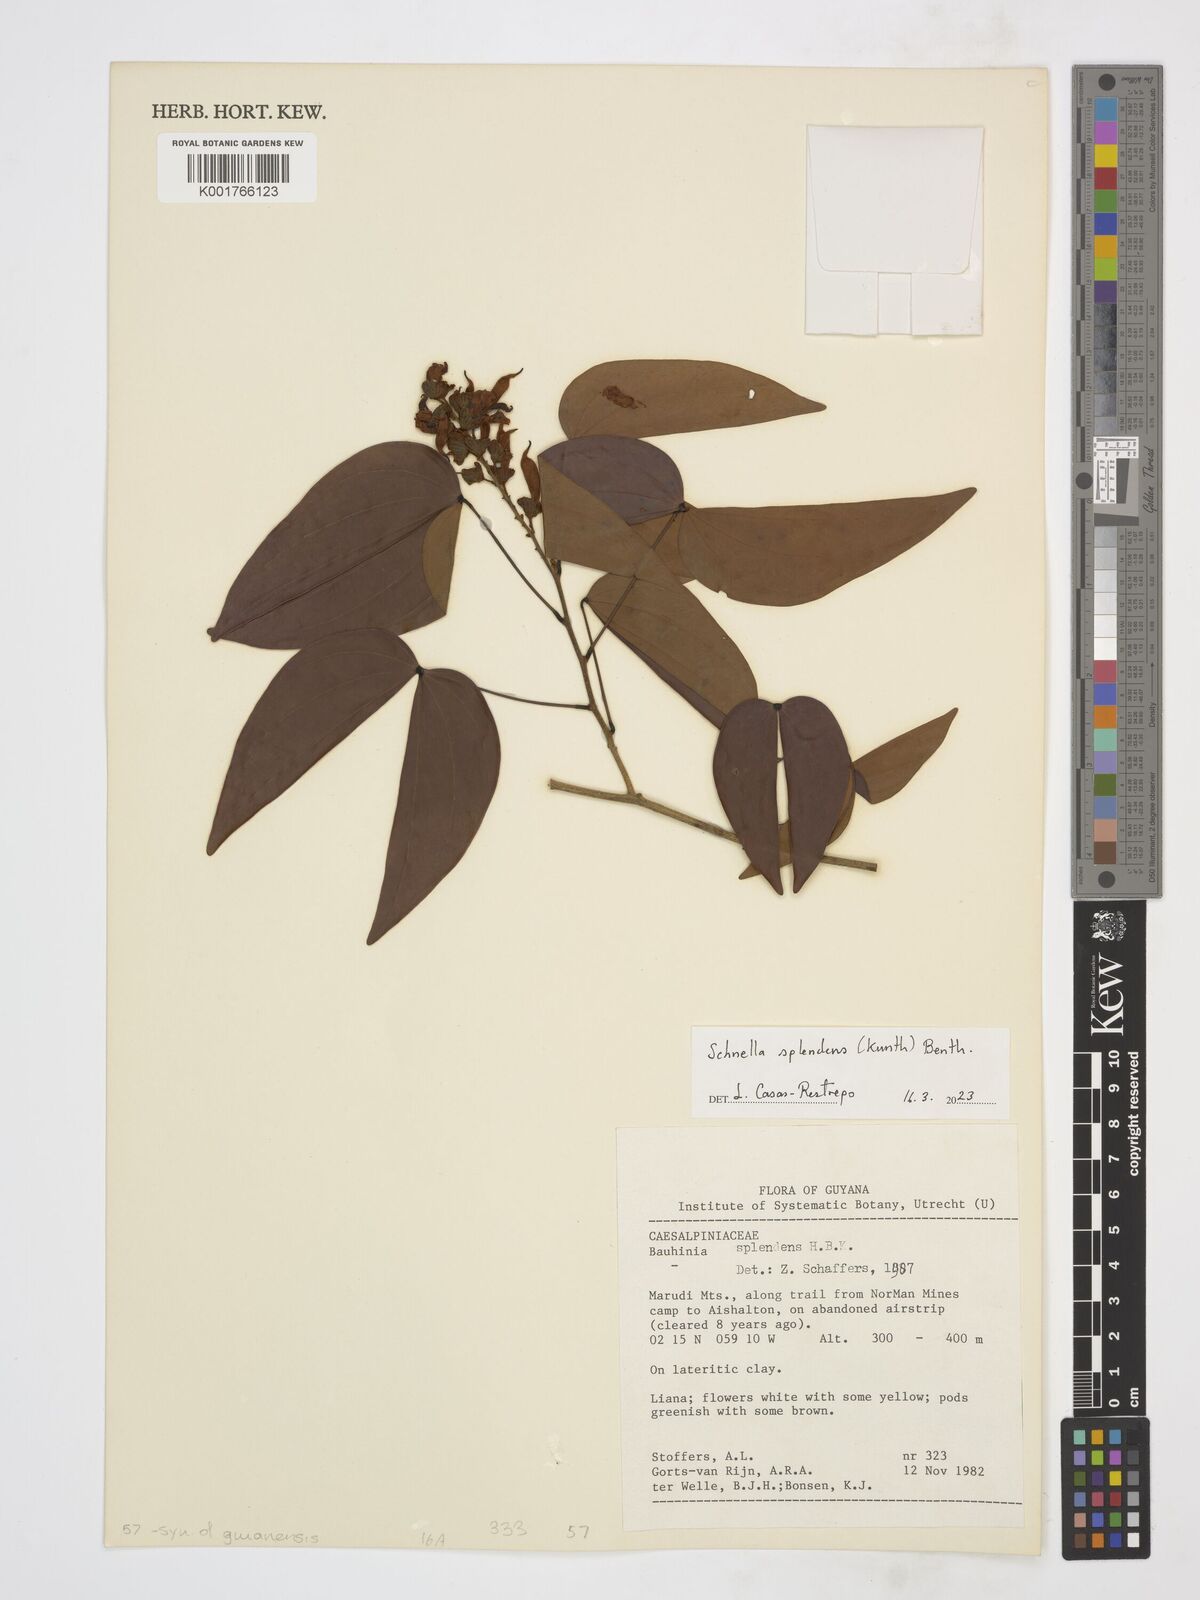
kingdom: Plantae
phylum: Tracheophyta
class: Magnoliopsida
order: Fabales
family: Fabaceae
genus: Schnella
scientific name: Schnella splendens
